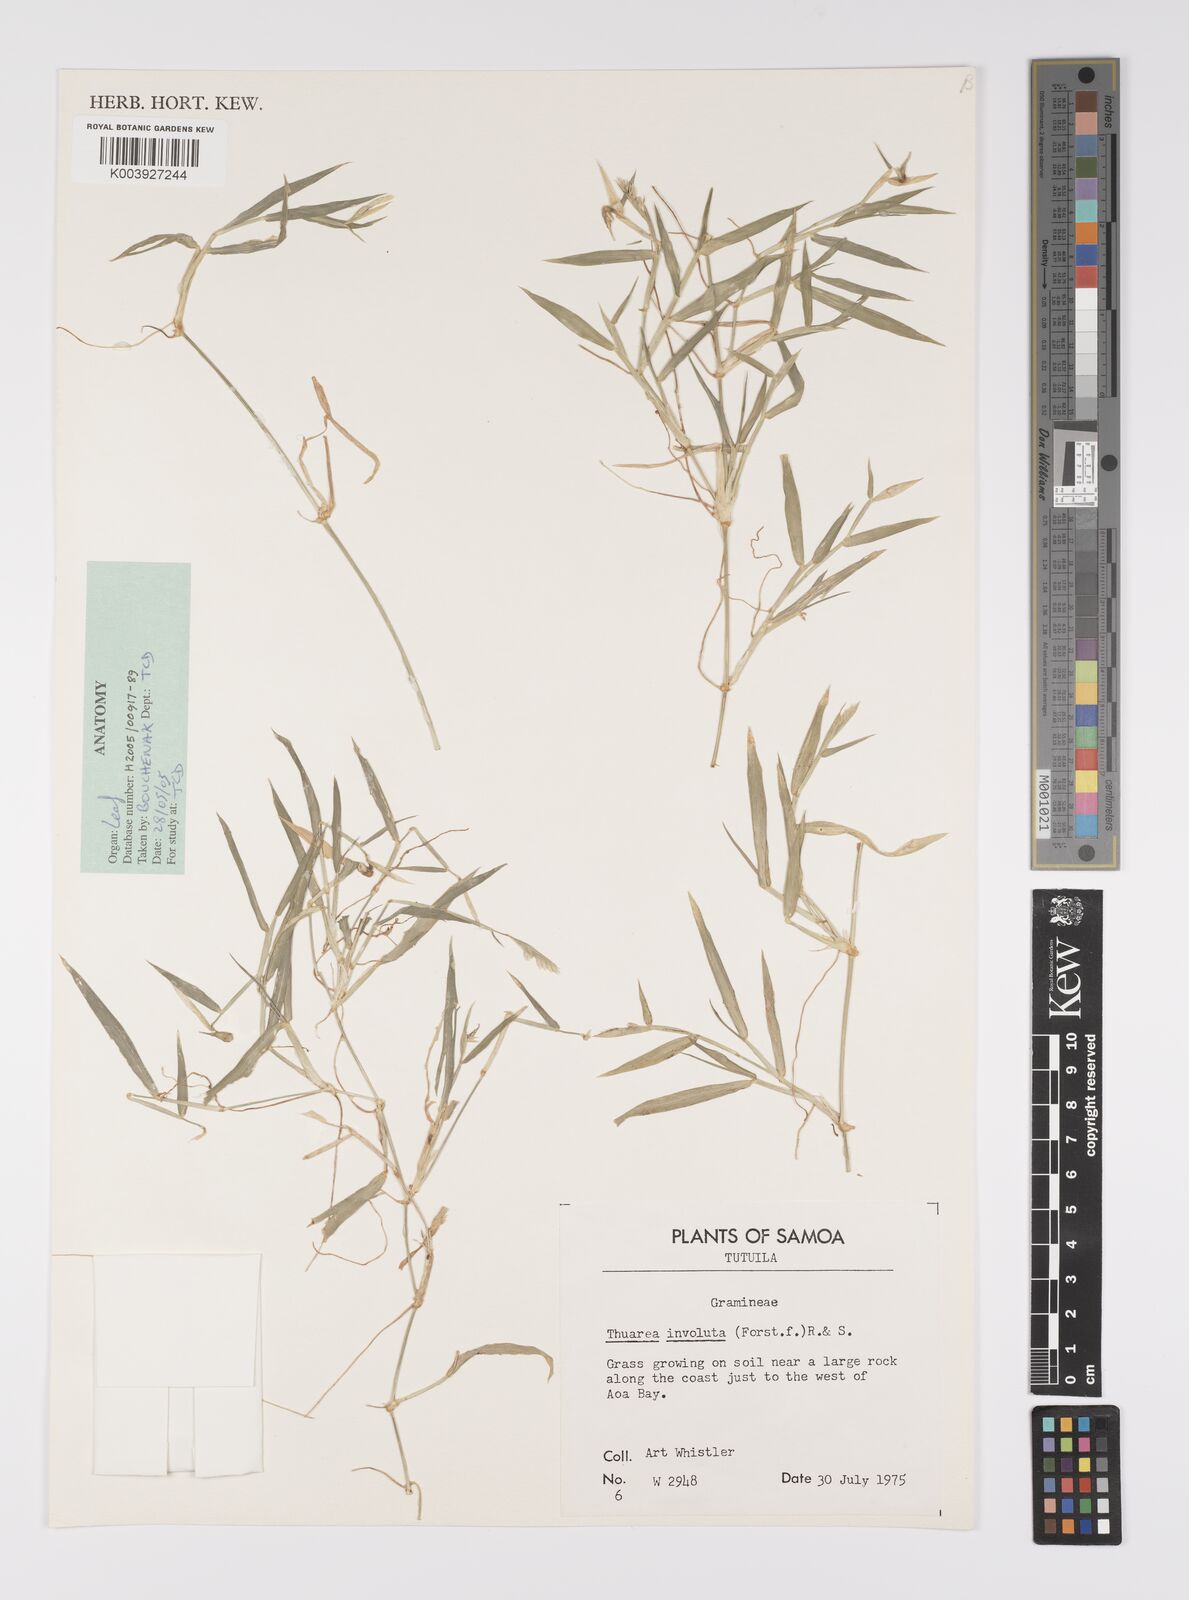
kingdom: Plantae
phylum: Tracheophyta
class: Liliopsida
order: Poales
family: Poaceae
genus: Thuarea
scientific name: Thuarea involuta
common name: Tropical beach grass
